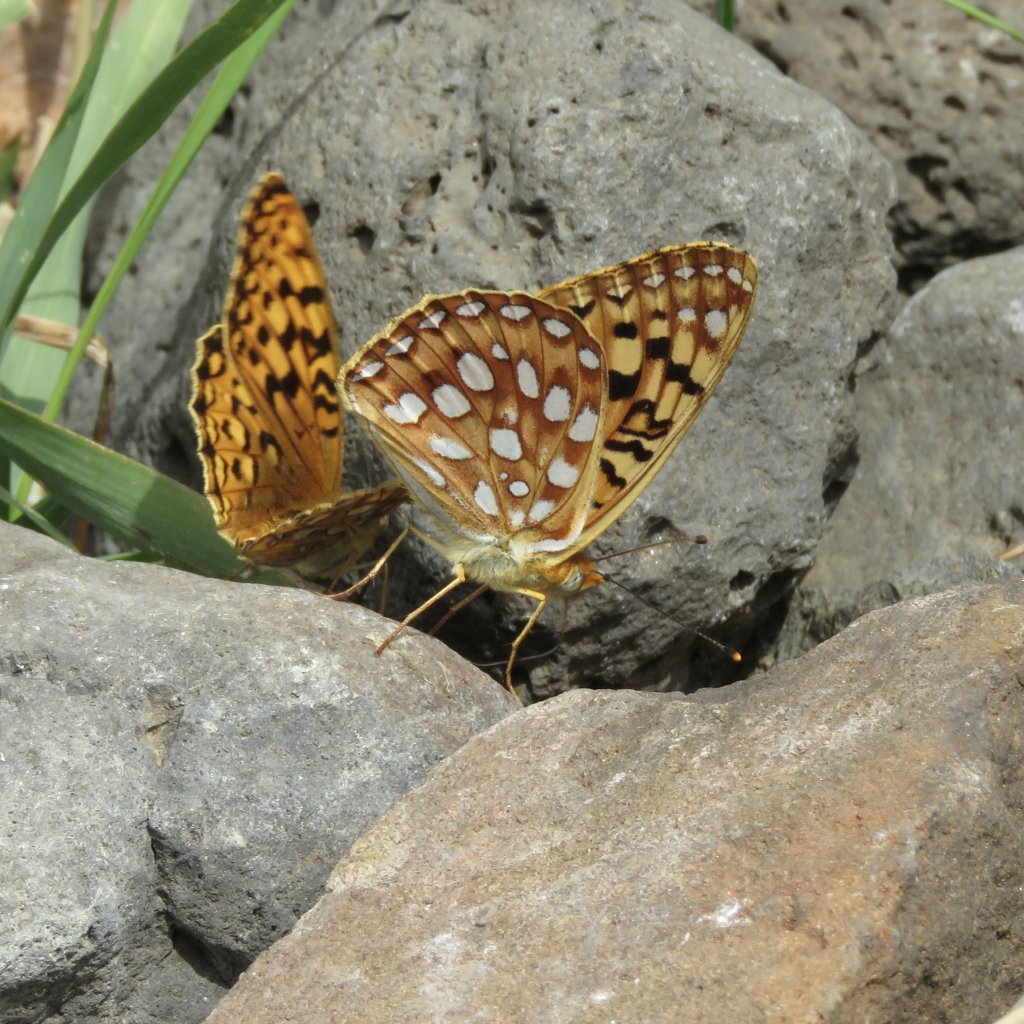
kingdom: Animalia
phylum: Arthropoda
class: Insecta
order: Lepidoptera
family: Nymphalidae
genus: Speyeria
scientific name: Speyeria zerene
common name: Zerene Fritillary
